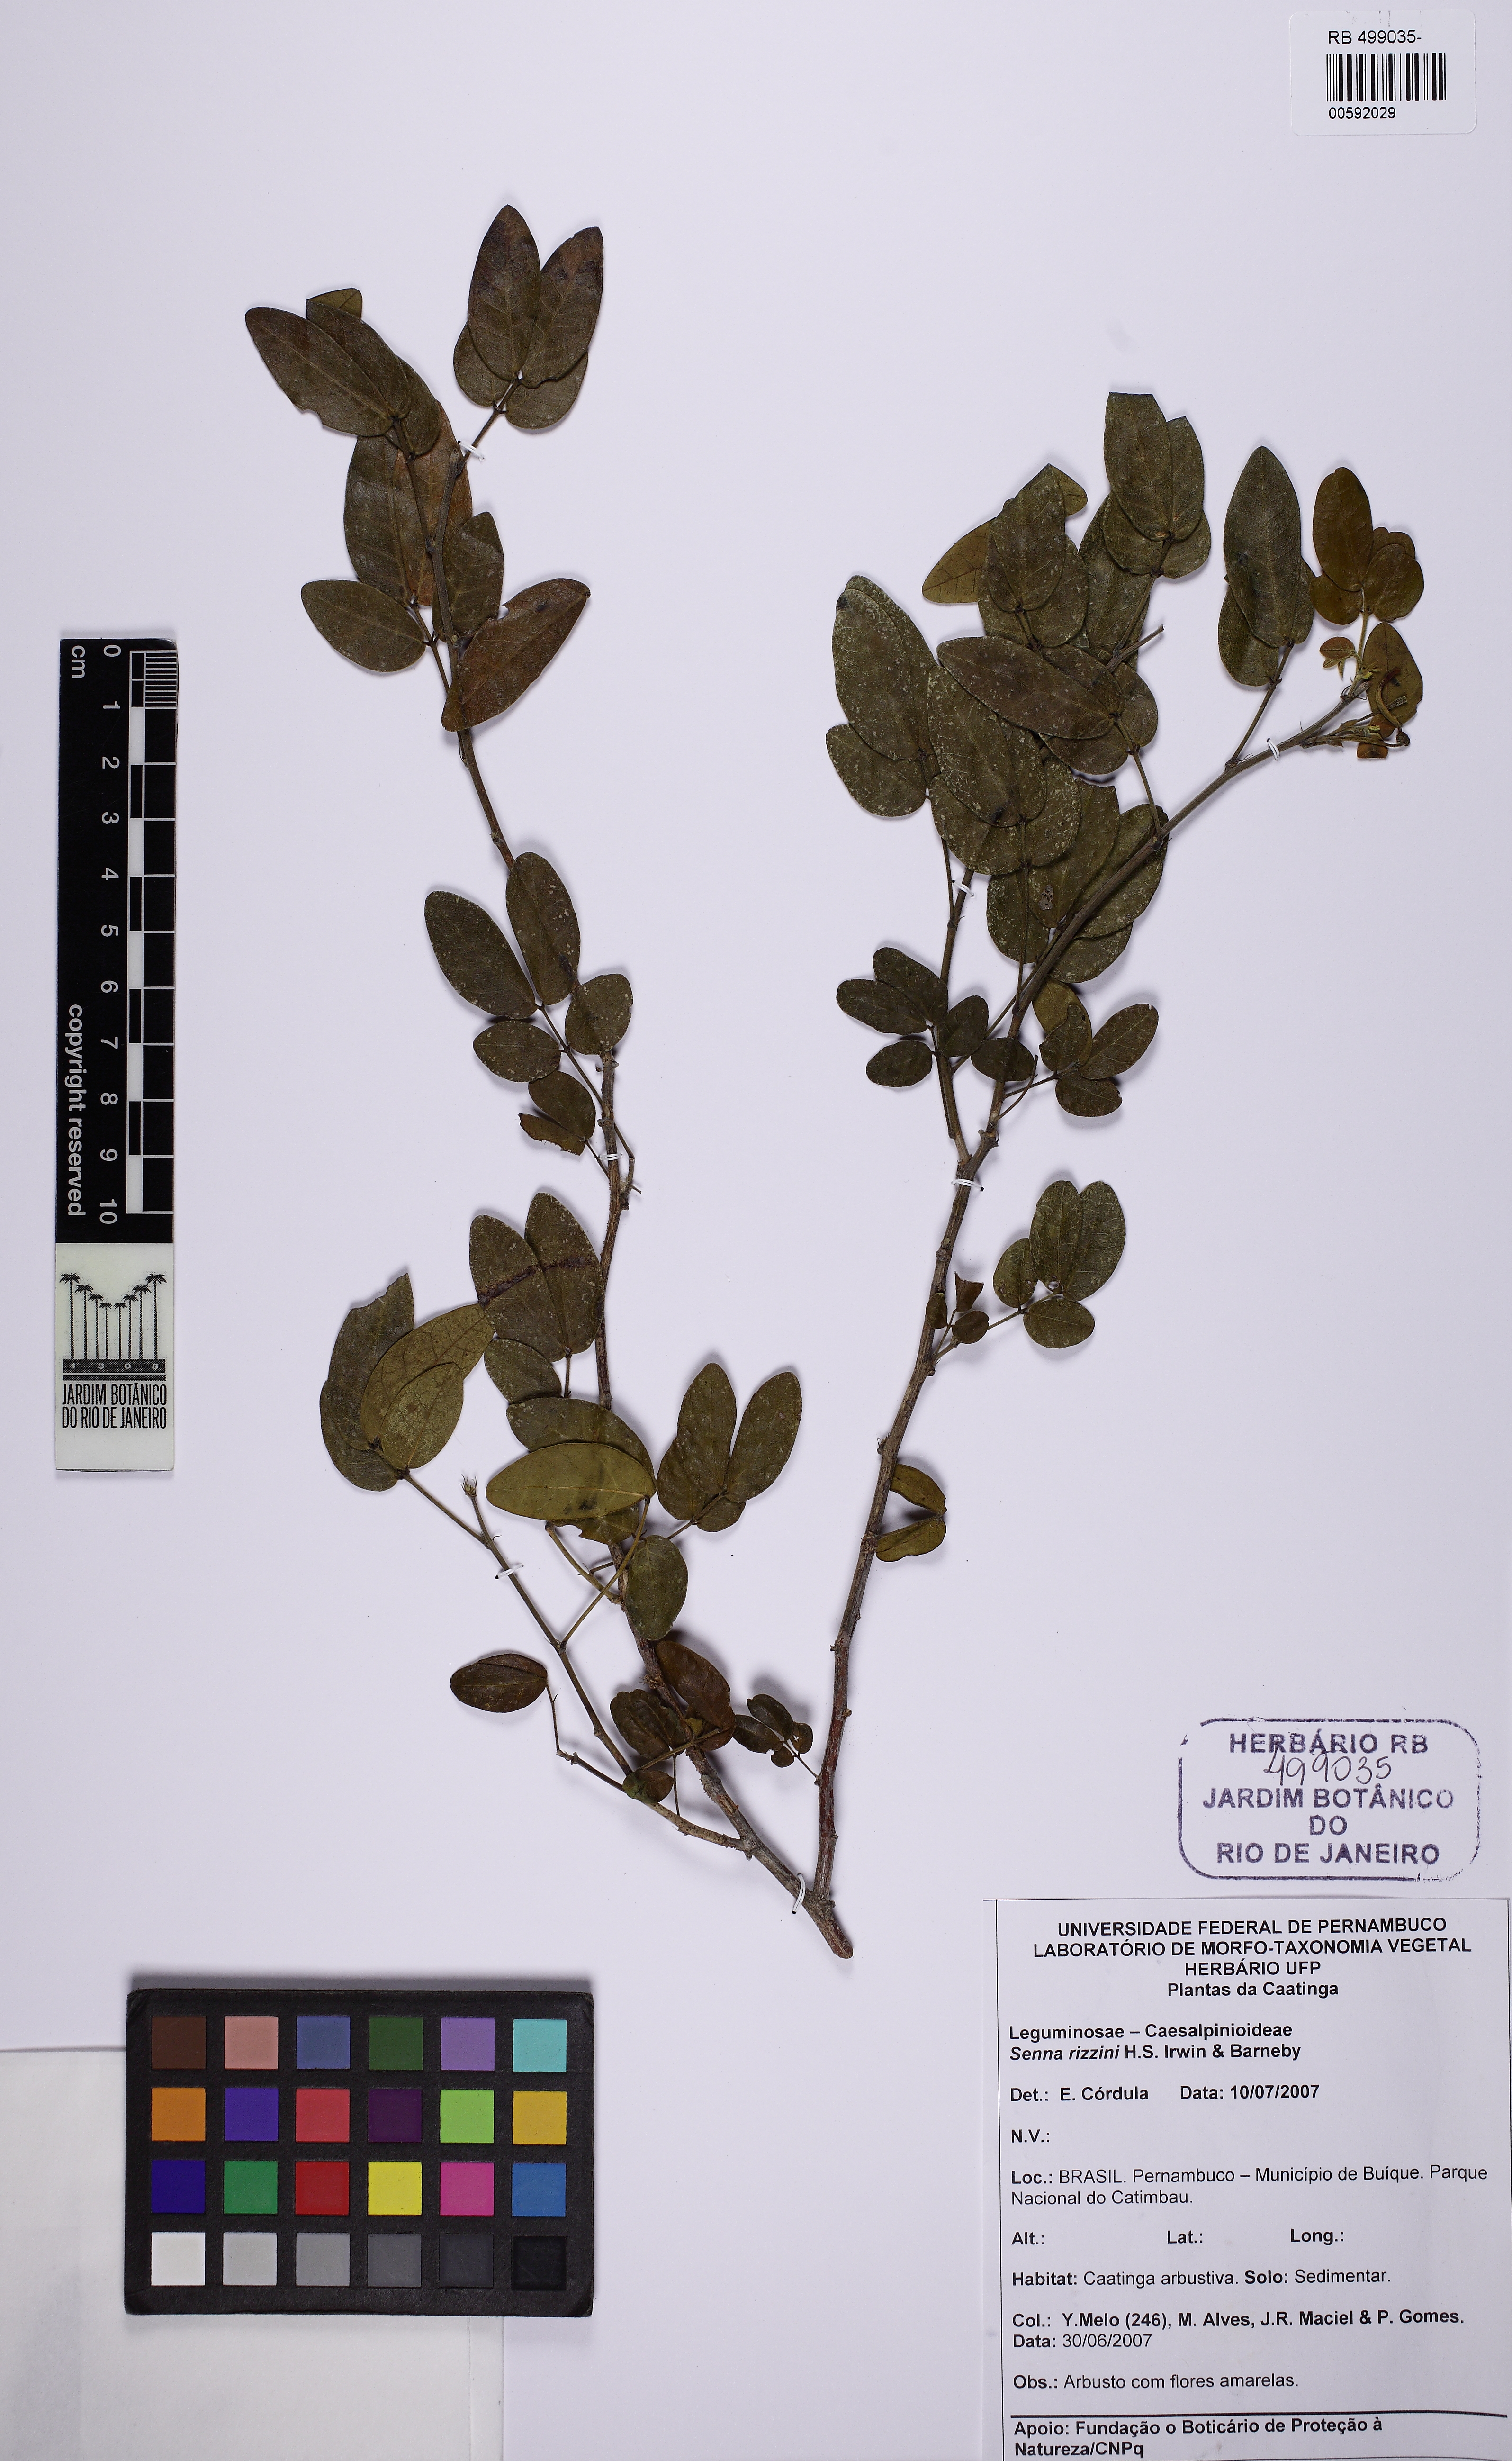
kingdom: Plantae
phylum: Tracheophyta
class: Magnoliopsida
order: Fabales
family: Fabaceae
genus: Senna
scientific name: Senna rizzinii
